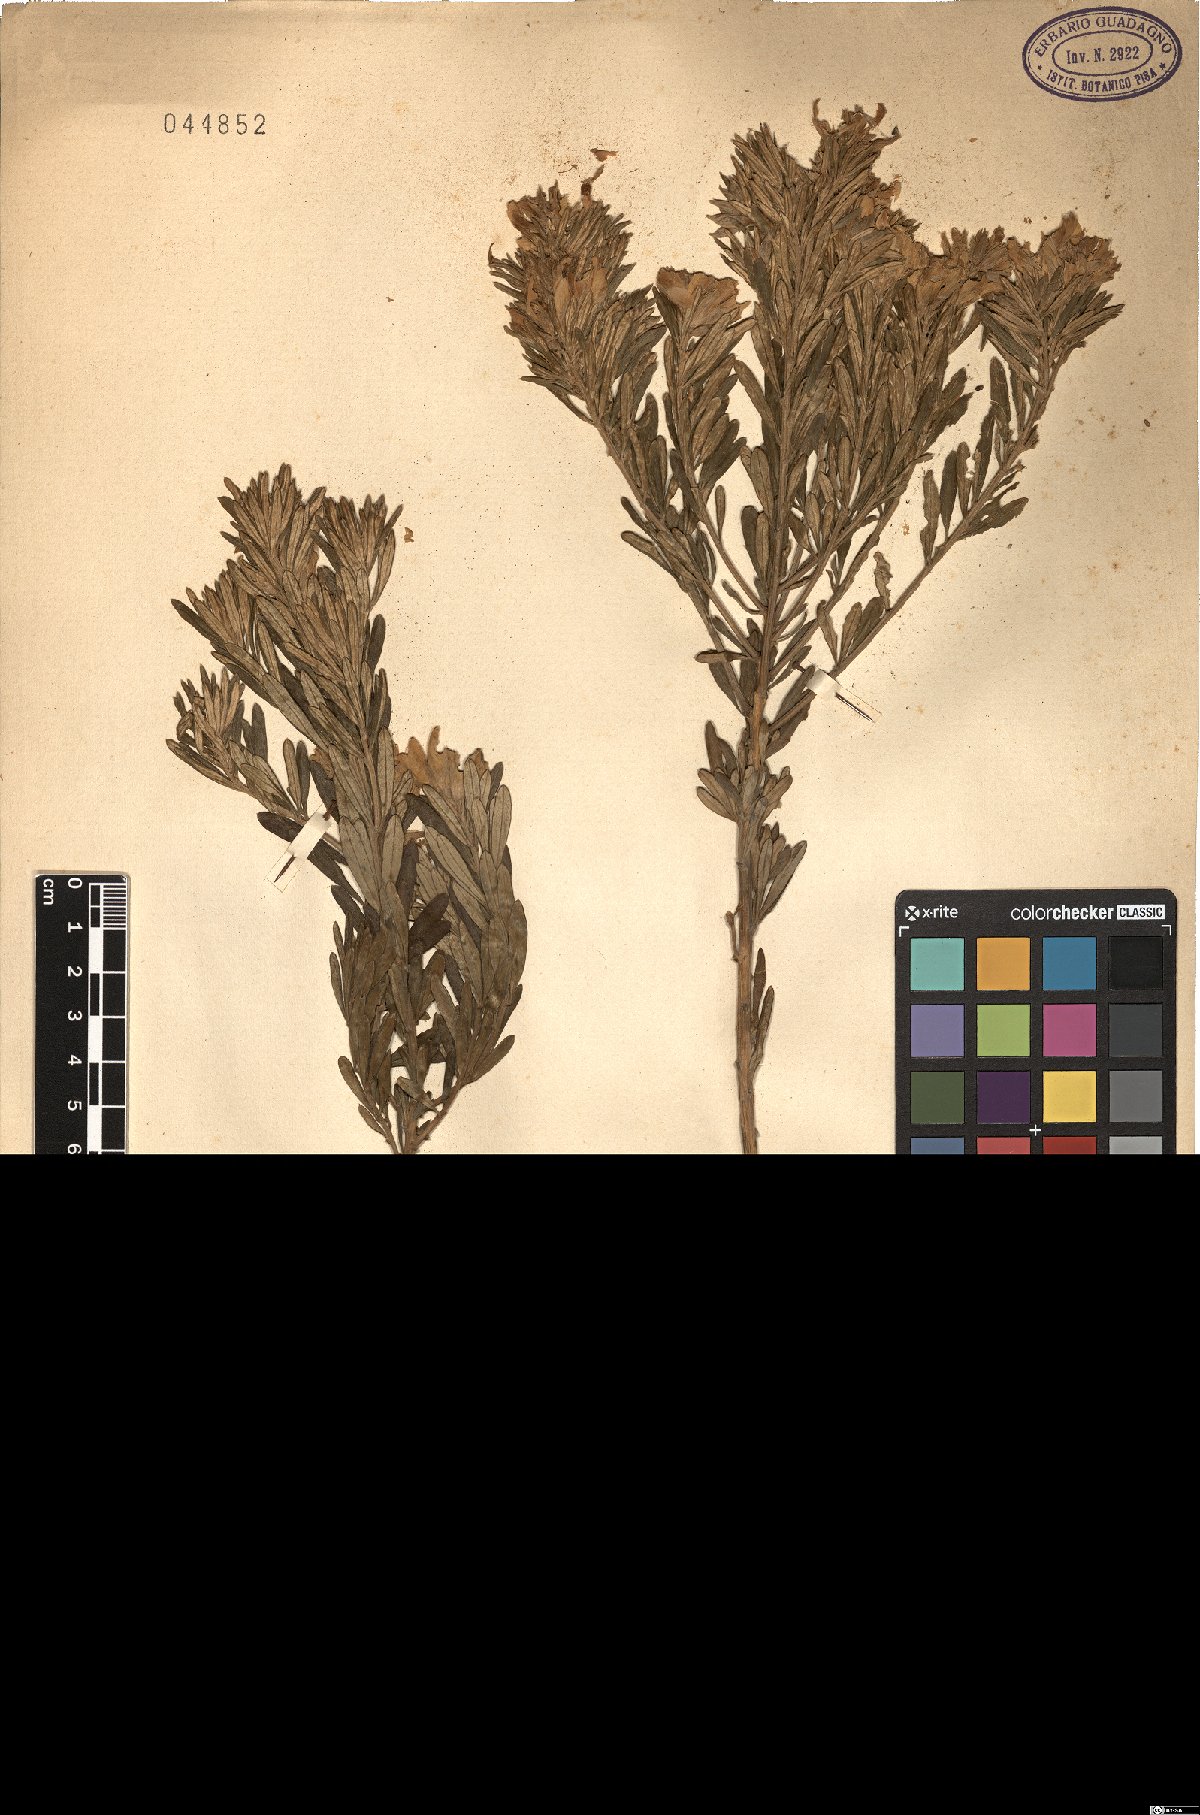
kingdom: Plantae
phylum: Tracheophyta
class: Magnoliopsida
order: Fabales
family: Fabaceae
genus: Genista
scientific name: Genista linifolia
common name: Mediterranean broom
